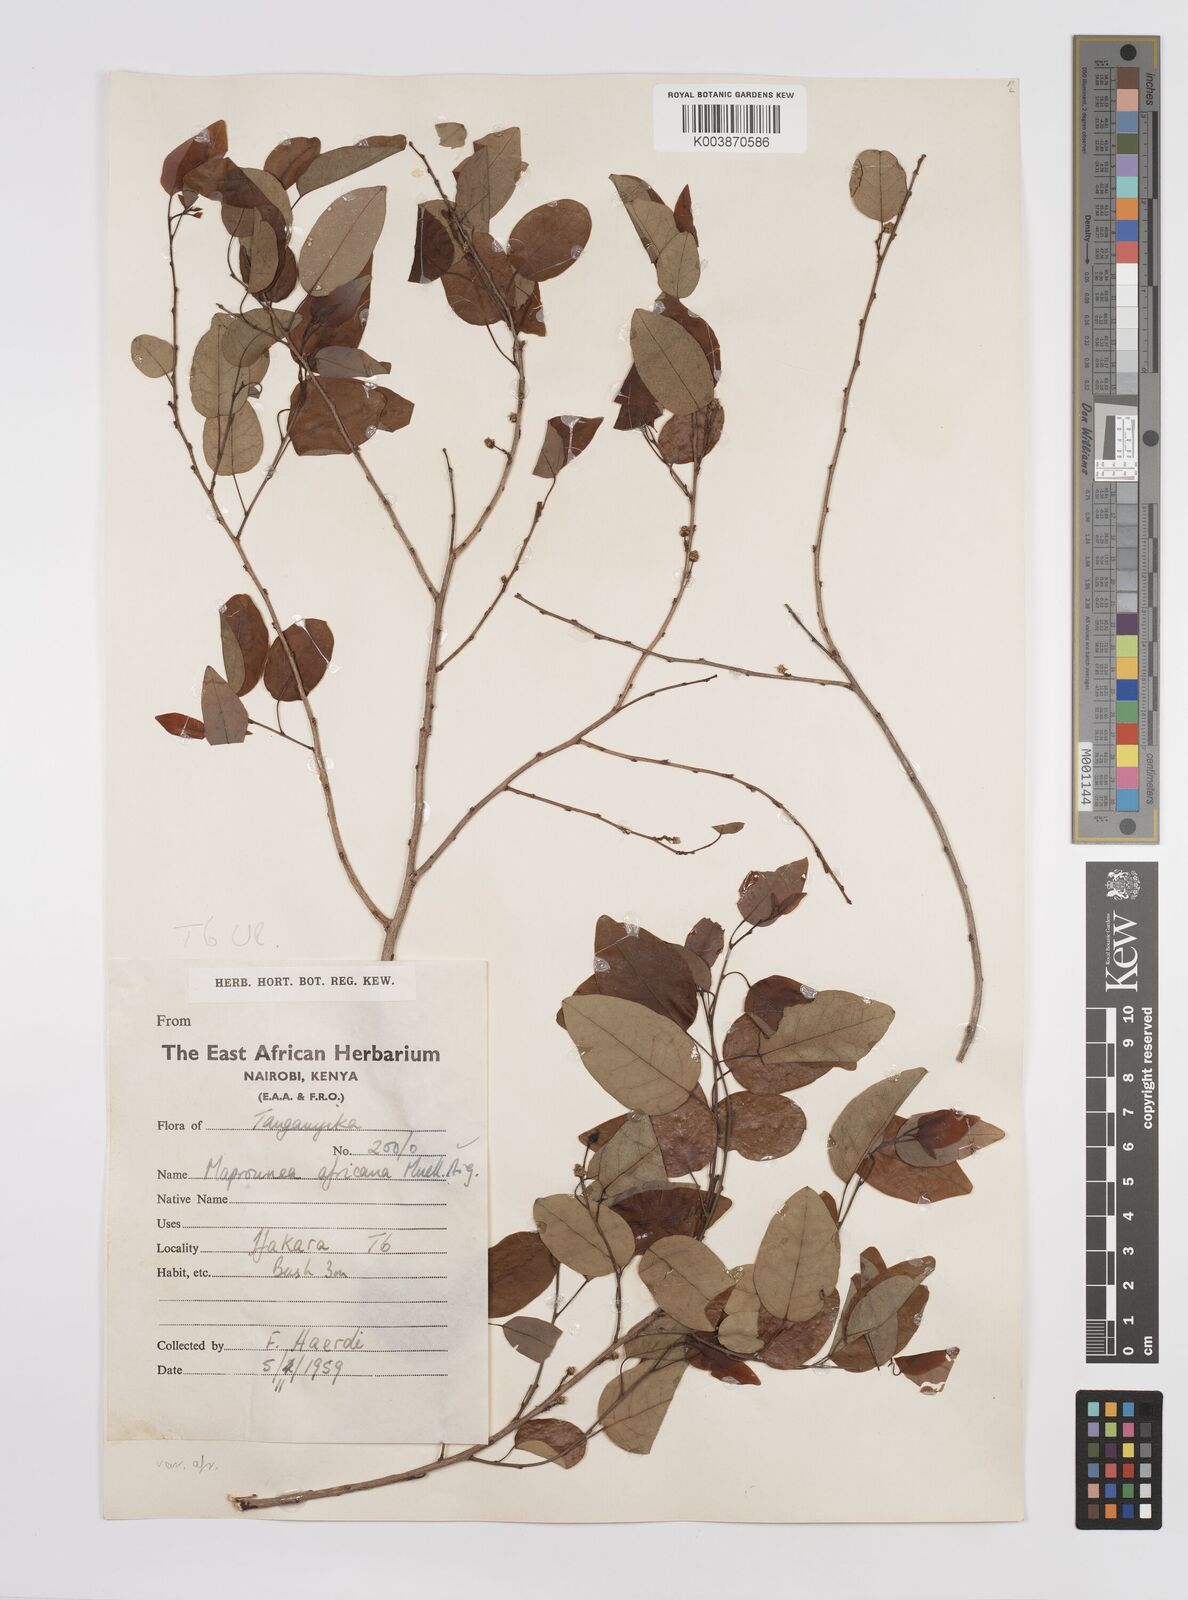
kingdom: Plantae
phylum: Tracheophyta
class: Magnoliopsida
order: Malpighiales
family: Euphorbiaceae
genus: Maprounea
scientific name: Maprounea africana
